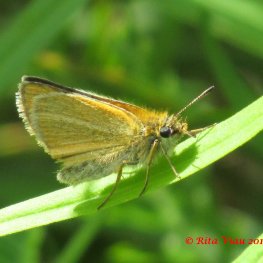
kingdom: Animalia
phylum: Arthropoda
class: Insecta
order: Lepidoptera
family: Hesperiidae
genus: Thymelicus
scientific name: Thymelicus lineola
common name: European Skipper
